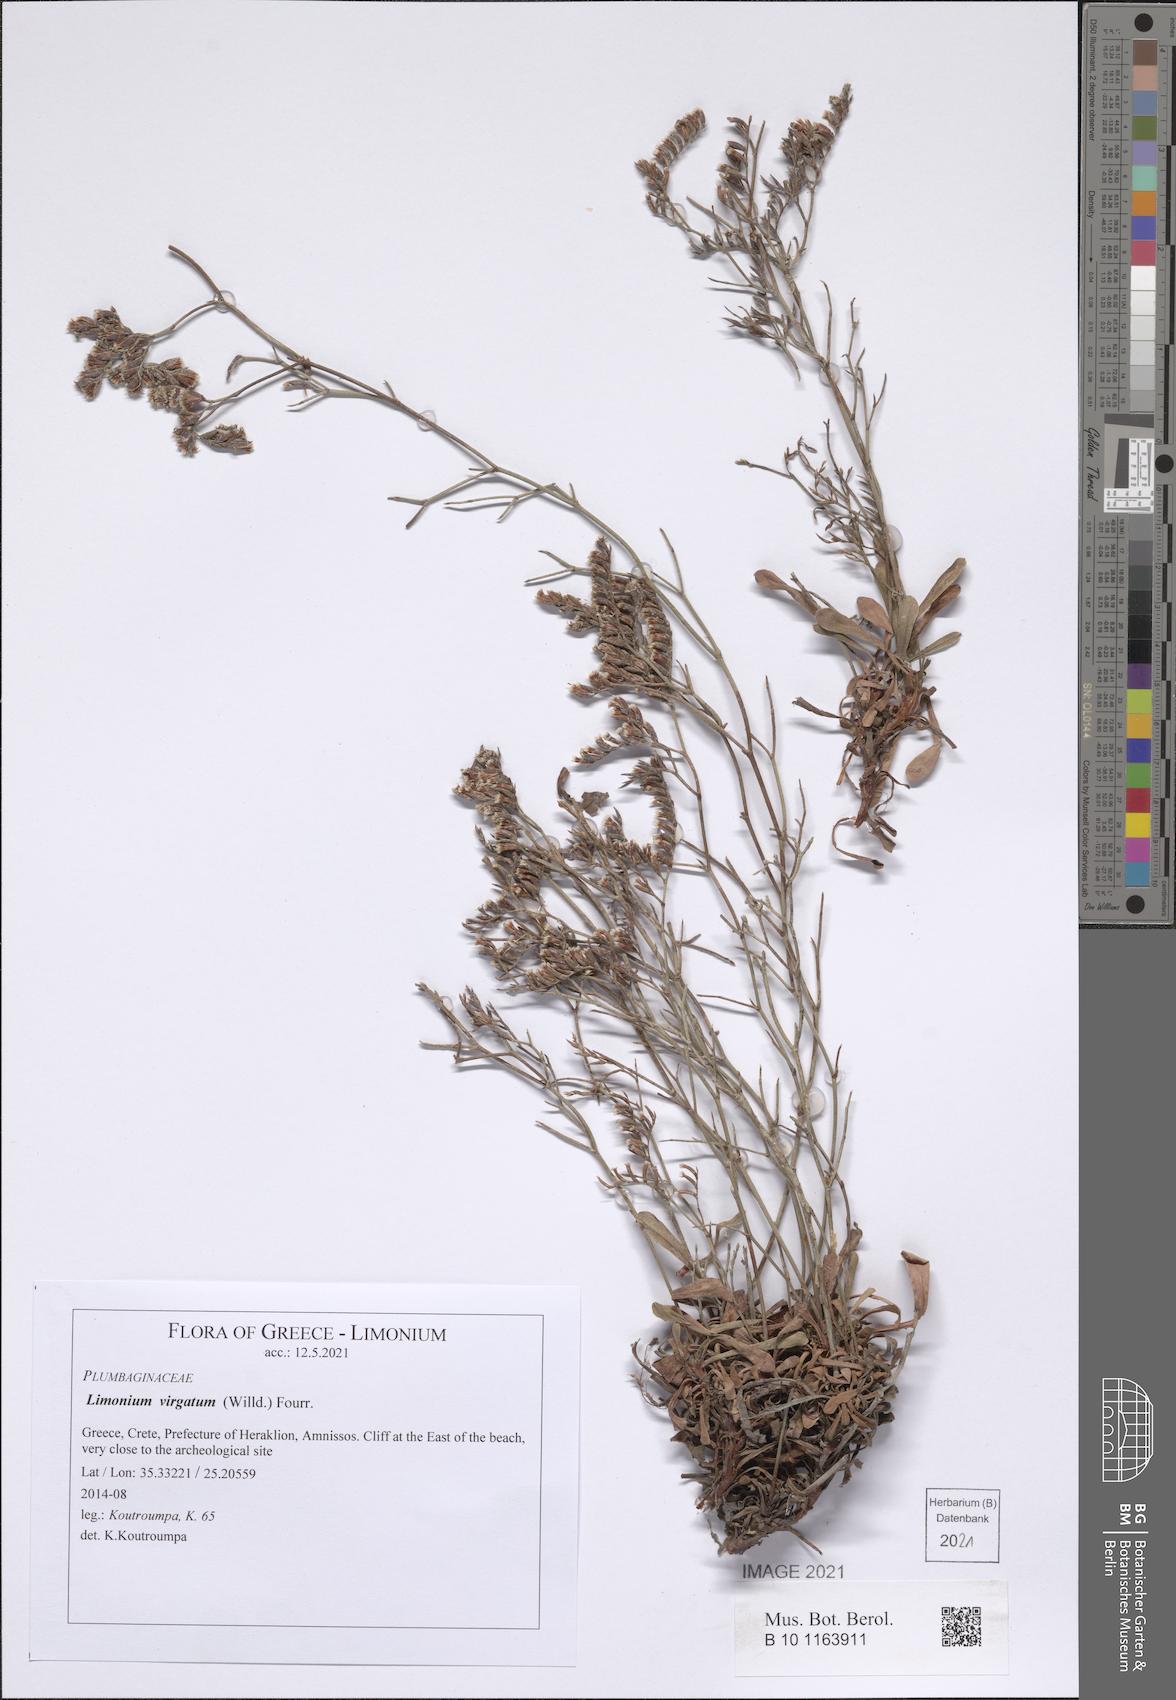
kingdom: Plantae
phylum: Tracheophyta
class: Magnoliopsida
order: Caryophyllales
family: Plumbaginaceae
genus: Limonium
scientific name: Limonium virgatum
